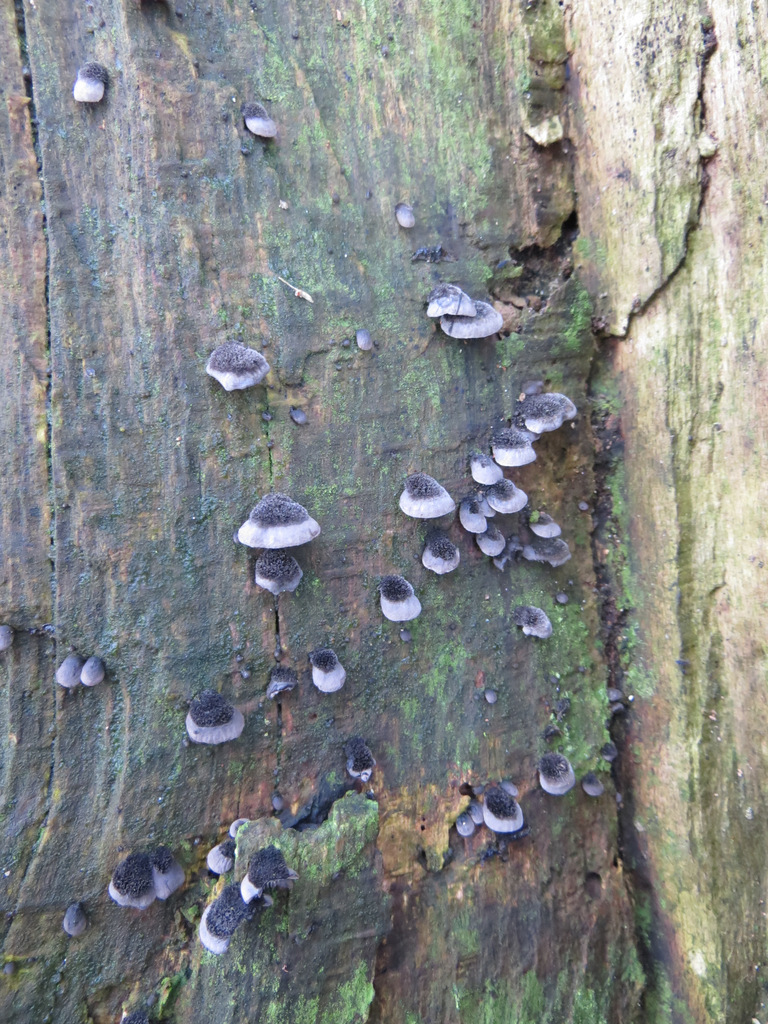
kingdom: Fungi
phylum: Basidiomycota
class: Agaricomycetes
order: Agaricales
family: Pleurotaceae
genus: Resupinatus
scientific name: Resupinatus trichotis
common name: mørkfiltet barkhat
